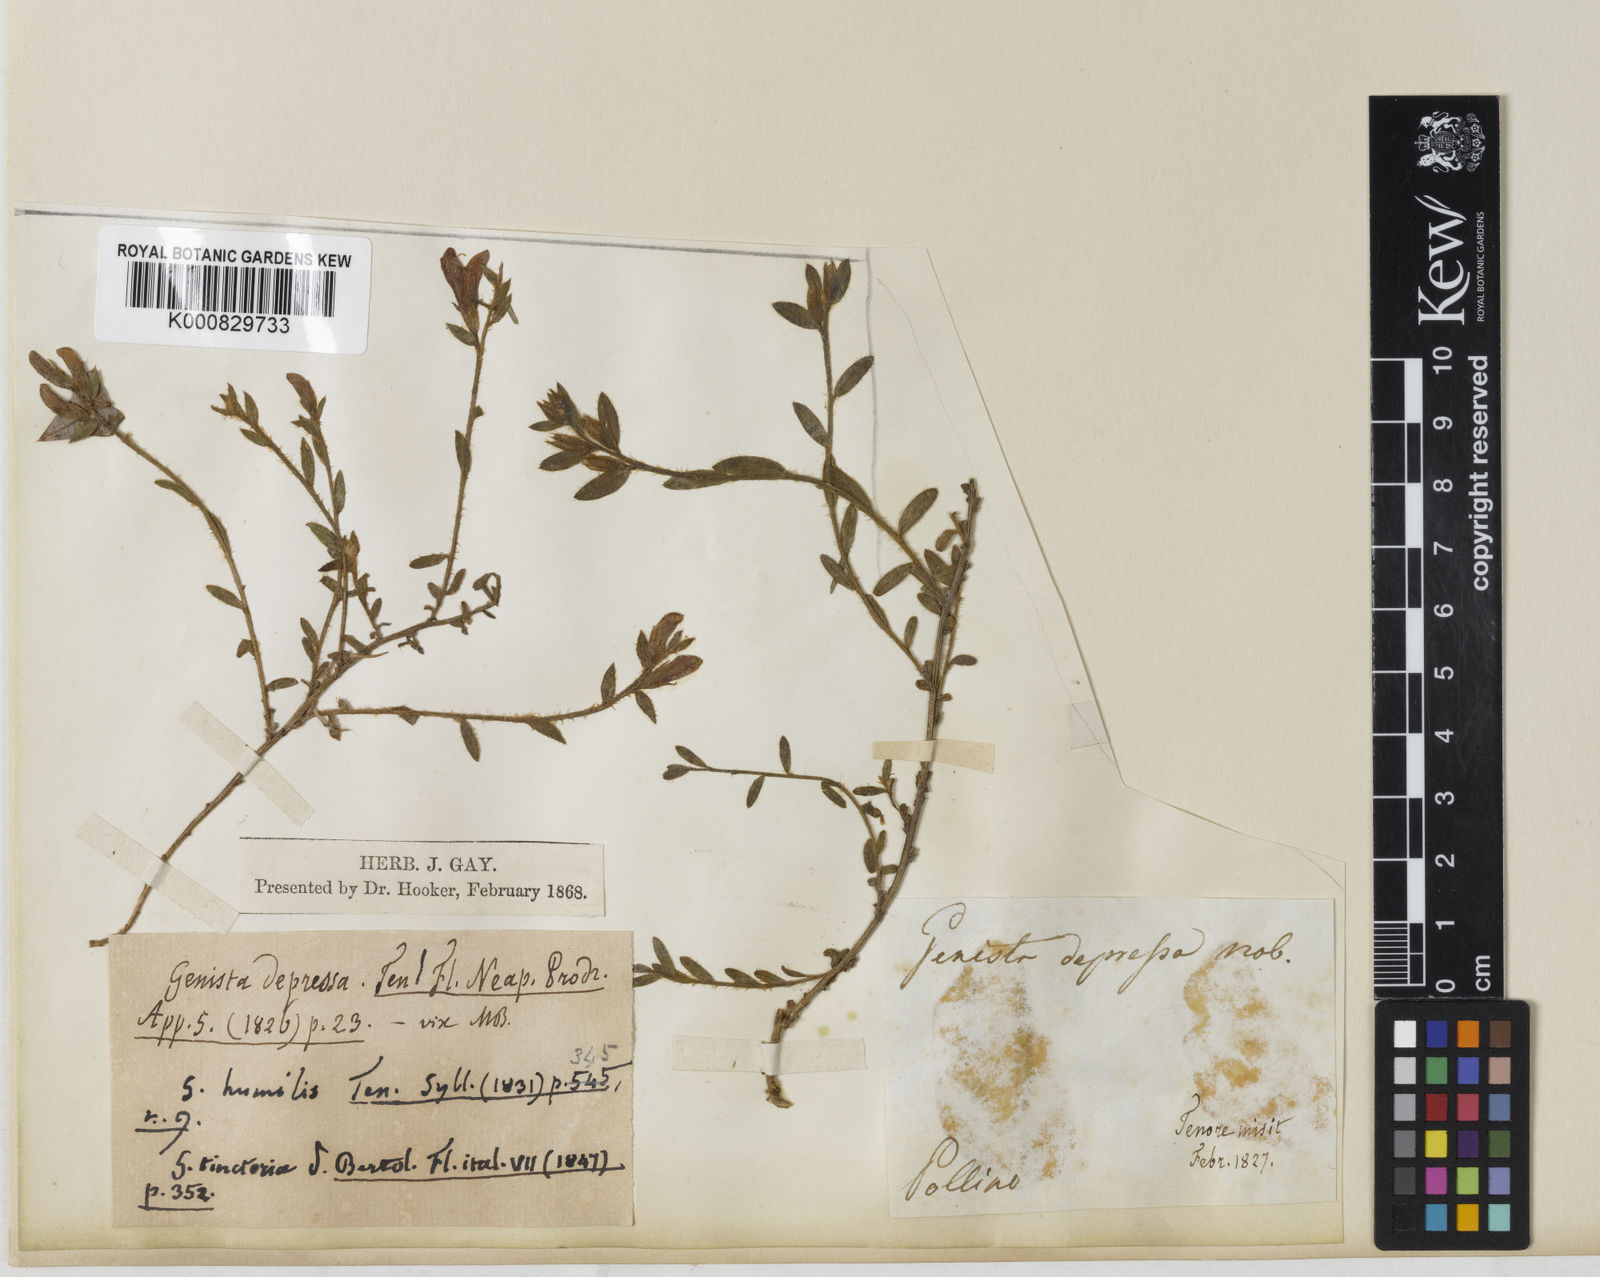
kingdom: Plantae
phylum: Tracheophyta
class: Magnoliopsida
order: Fabales
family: Fabaceae
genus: Genista
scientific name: Genista tinctoria
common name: Dyer's greenweed
